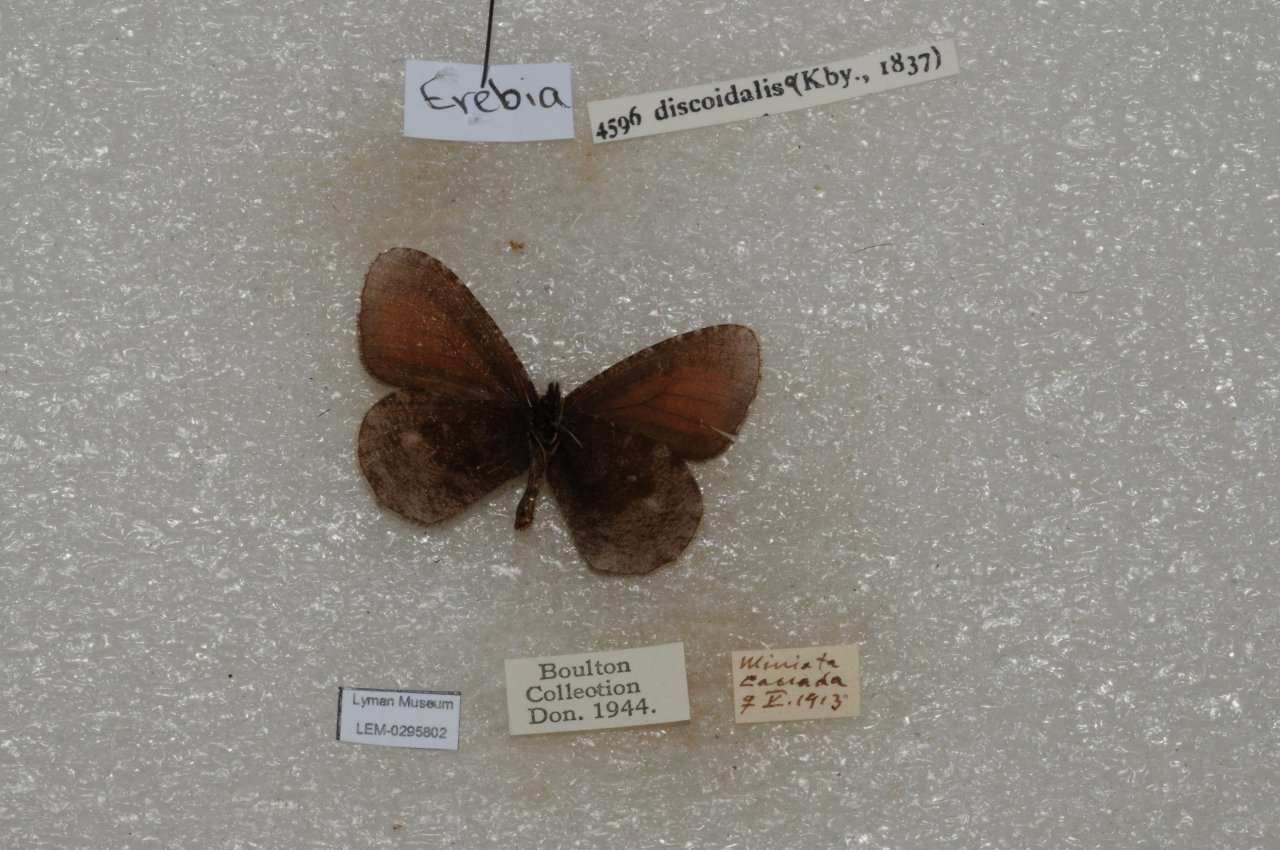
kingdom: Animalia
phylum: Arthropoda
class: Insecta
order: Lepidoptera
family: Nymphalidae
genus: Erebia
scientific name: Erebia discoidalis
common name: Red-disked Alpine
